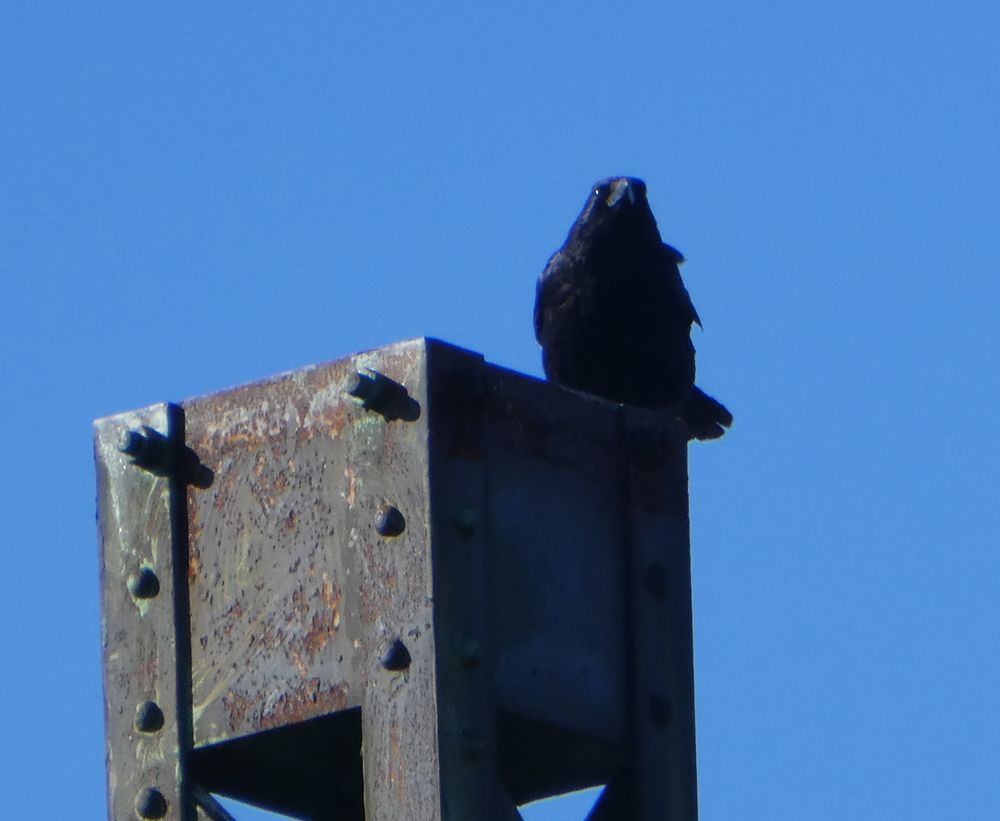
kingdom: Animalia
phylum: Chordata
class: Aves
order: Passeriformes
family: Corvidae
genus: Corvus
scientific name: Corvus corone
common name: Carrion crow
